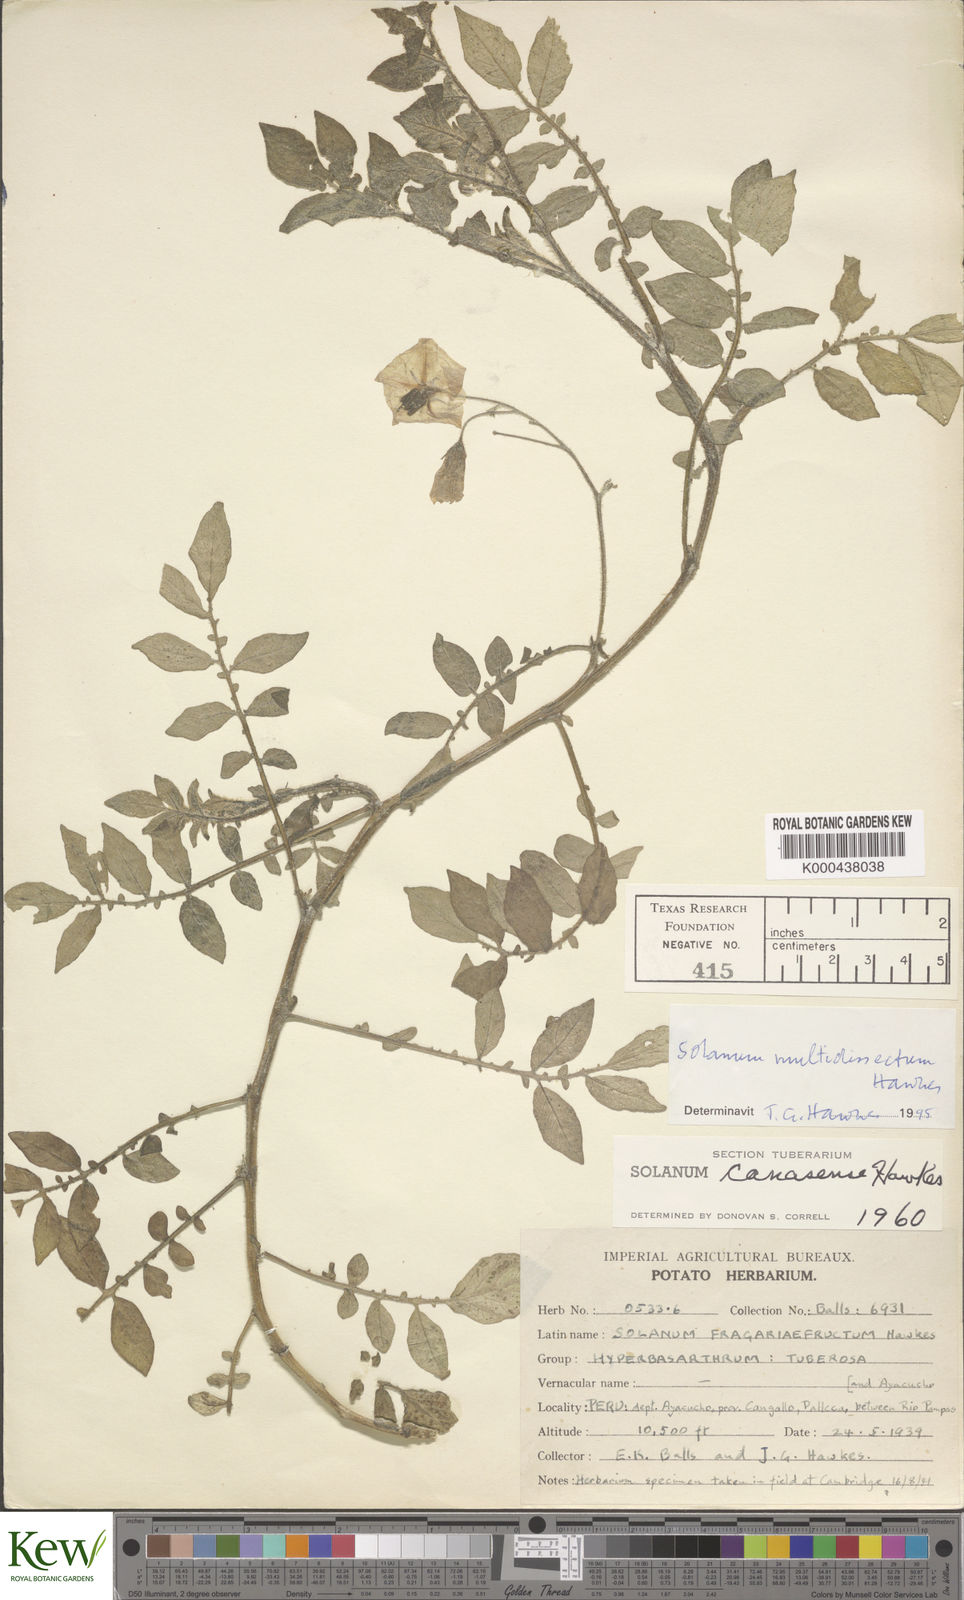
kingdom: Plantae
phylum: Tracheophyta
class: Magnoliopsida
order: Solanales
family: Solanaceae
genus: Solanum
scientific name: Solanum candolleanum
